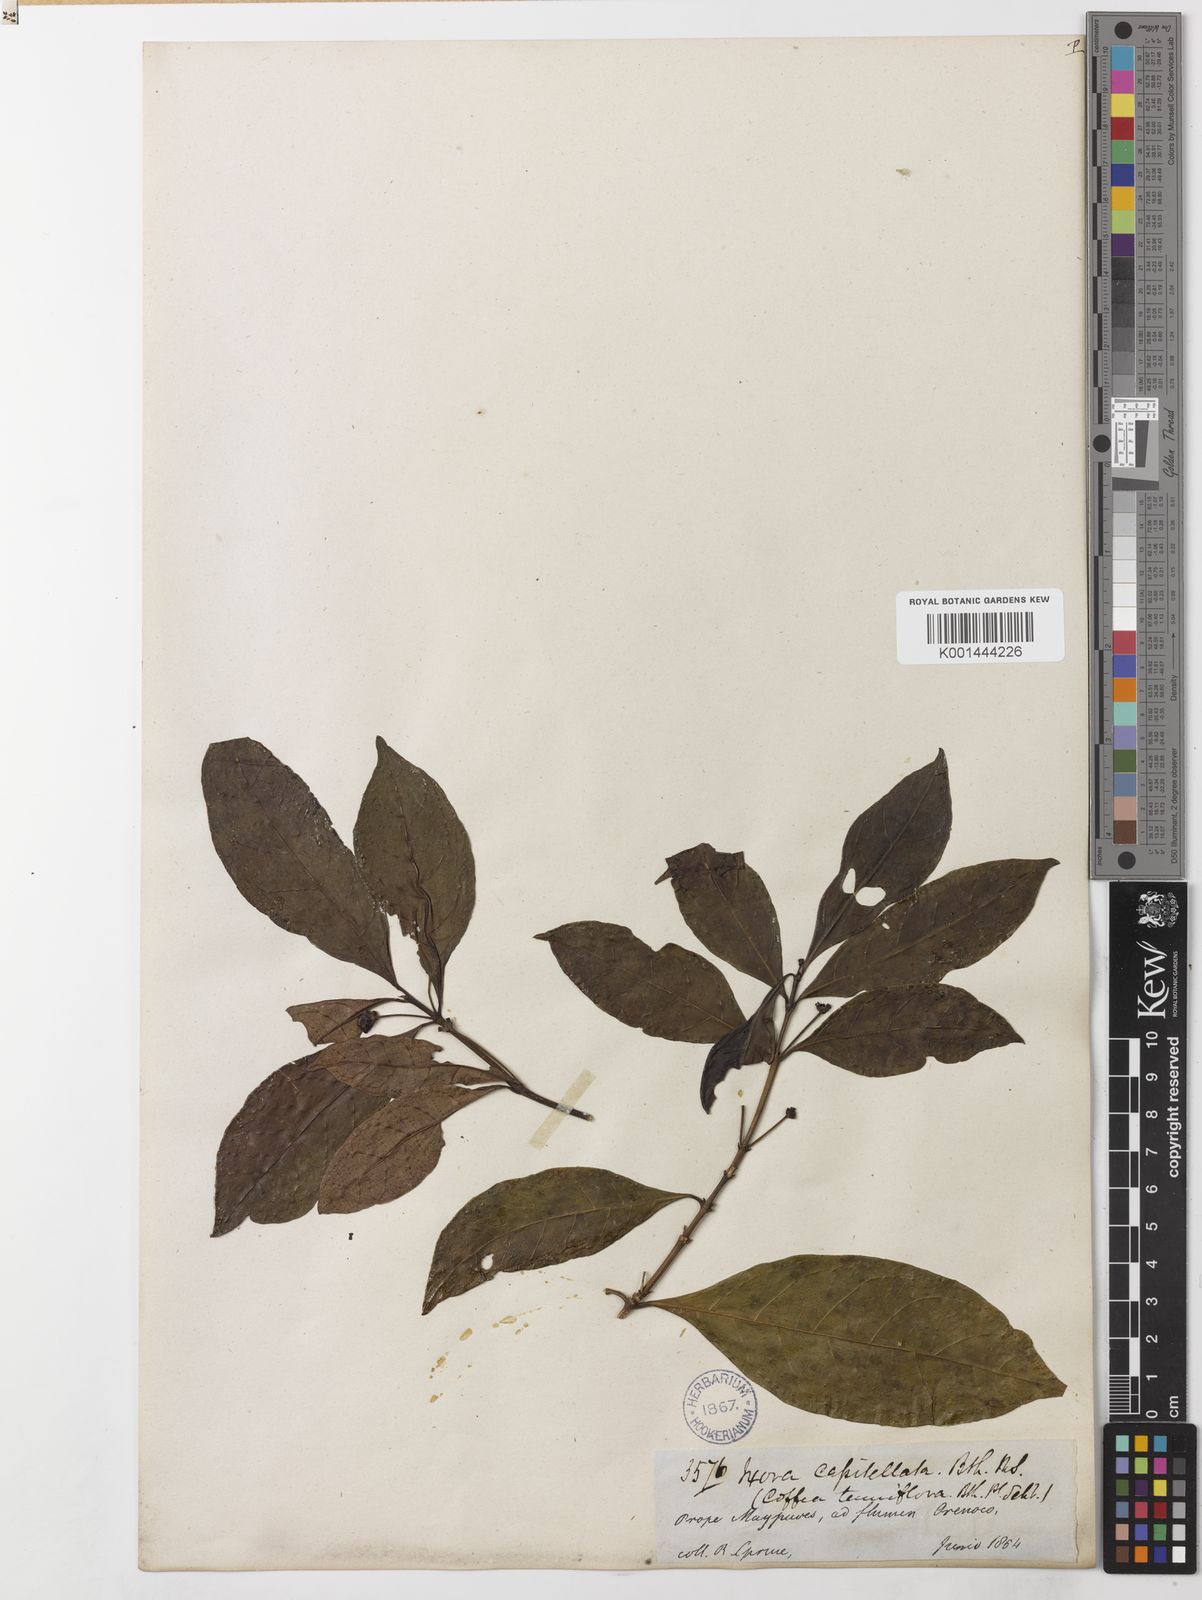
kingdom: Plantae
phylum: Tracheophyta
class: Magnoliopsida
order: Gentianales
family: Rubiaceae
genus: Appunia
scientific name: Appunia
